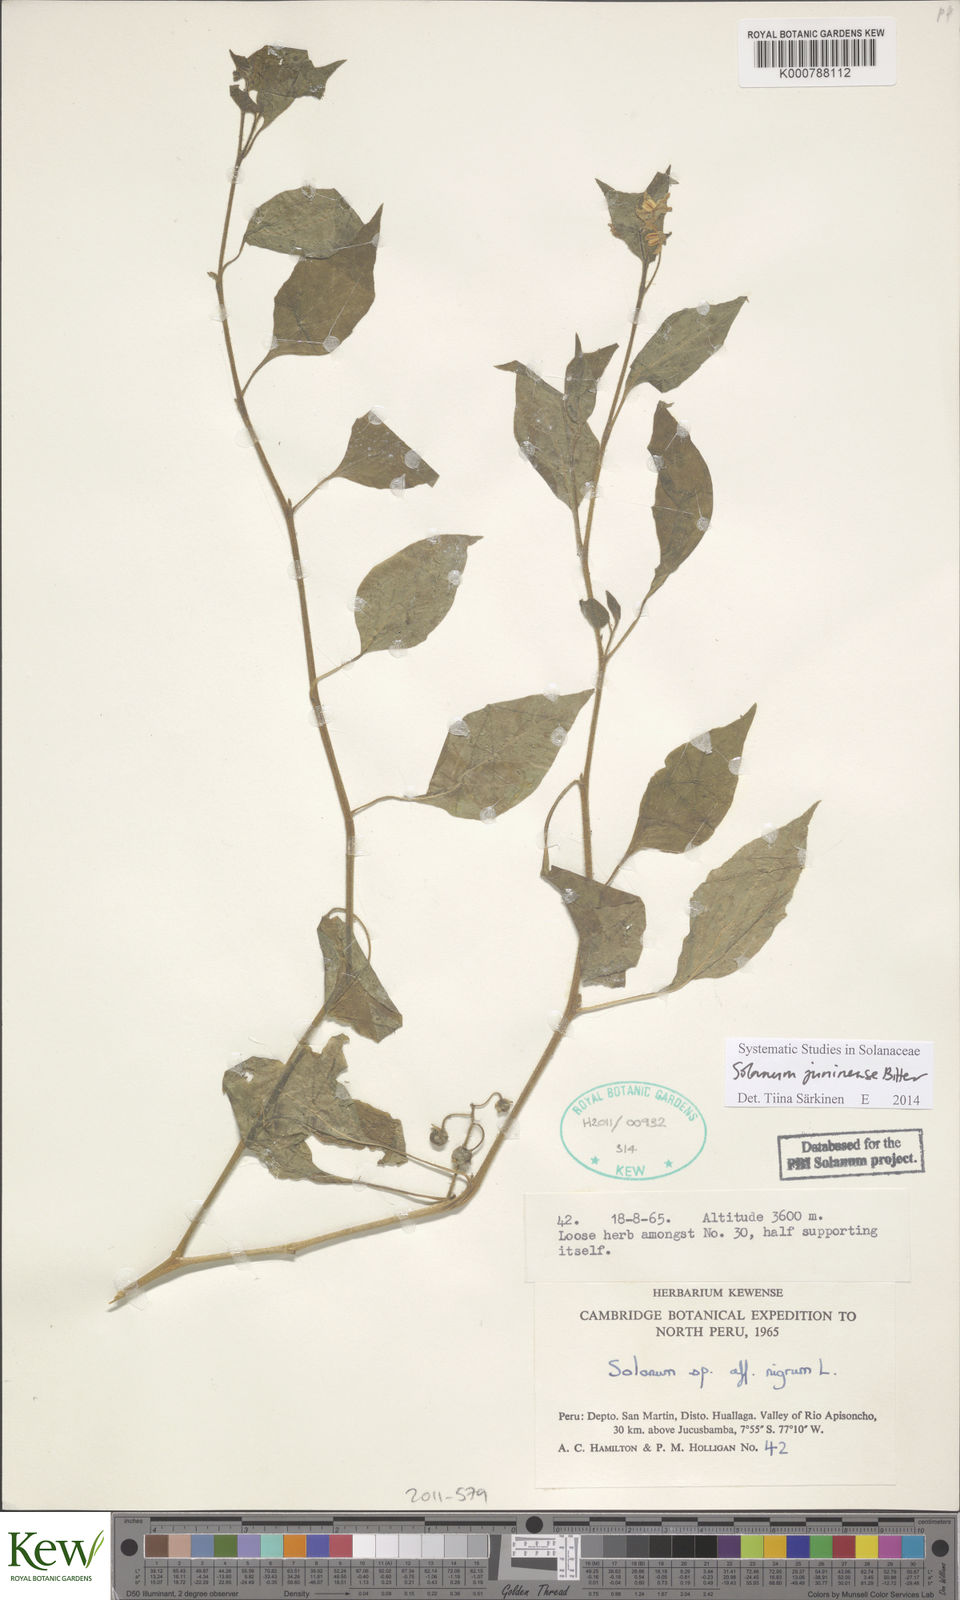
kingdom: Plantae
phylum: Tracheophyta
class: Magnoliopsida
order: Solanales
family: Solanaceae
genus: Solanum
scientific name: Solanum juninense
